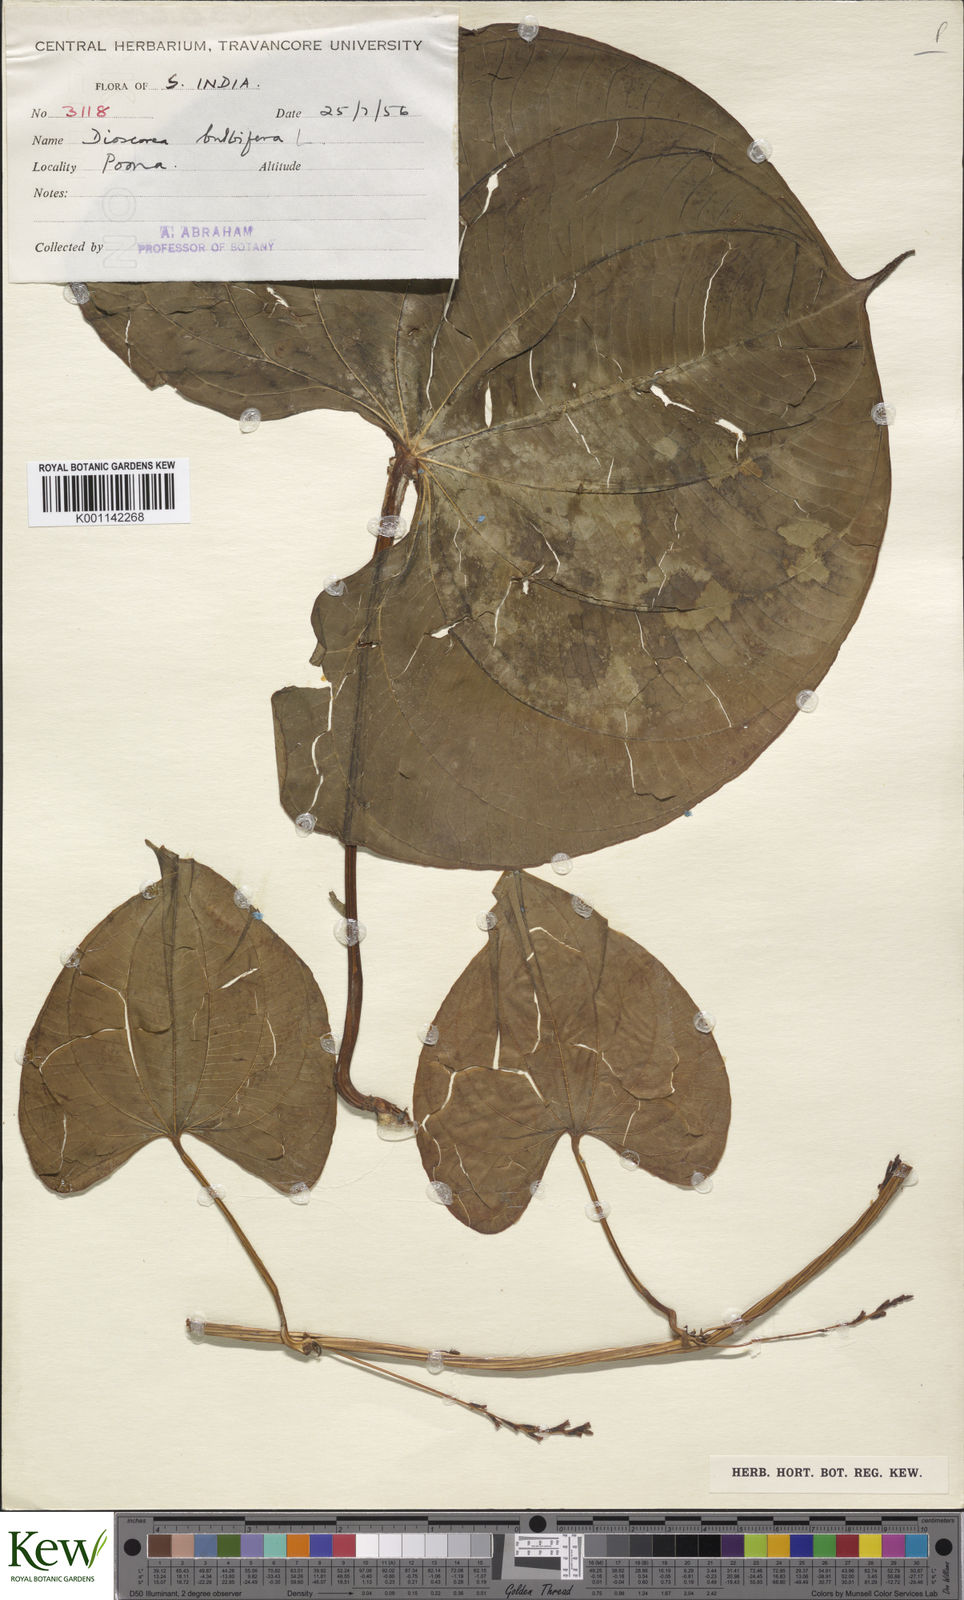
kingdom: Plantae
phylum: Tracheophyta
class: Liliopsida
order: Dioscoreales
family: Dioscoreaceae
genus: Dioscorea
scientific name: Dioscorea bulbifera
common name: Air yam
